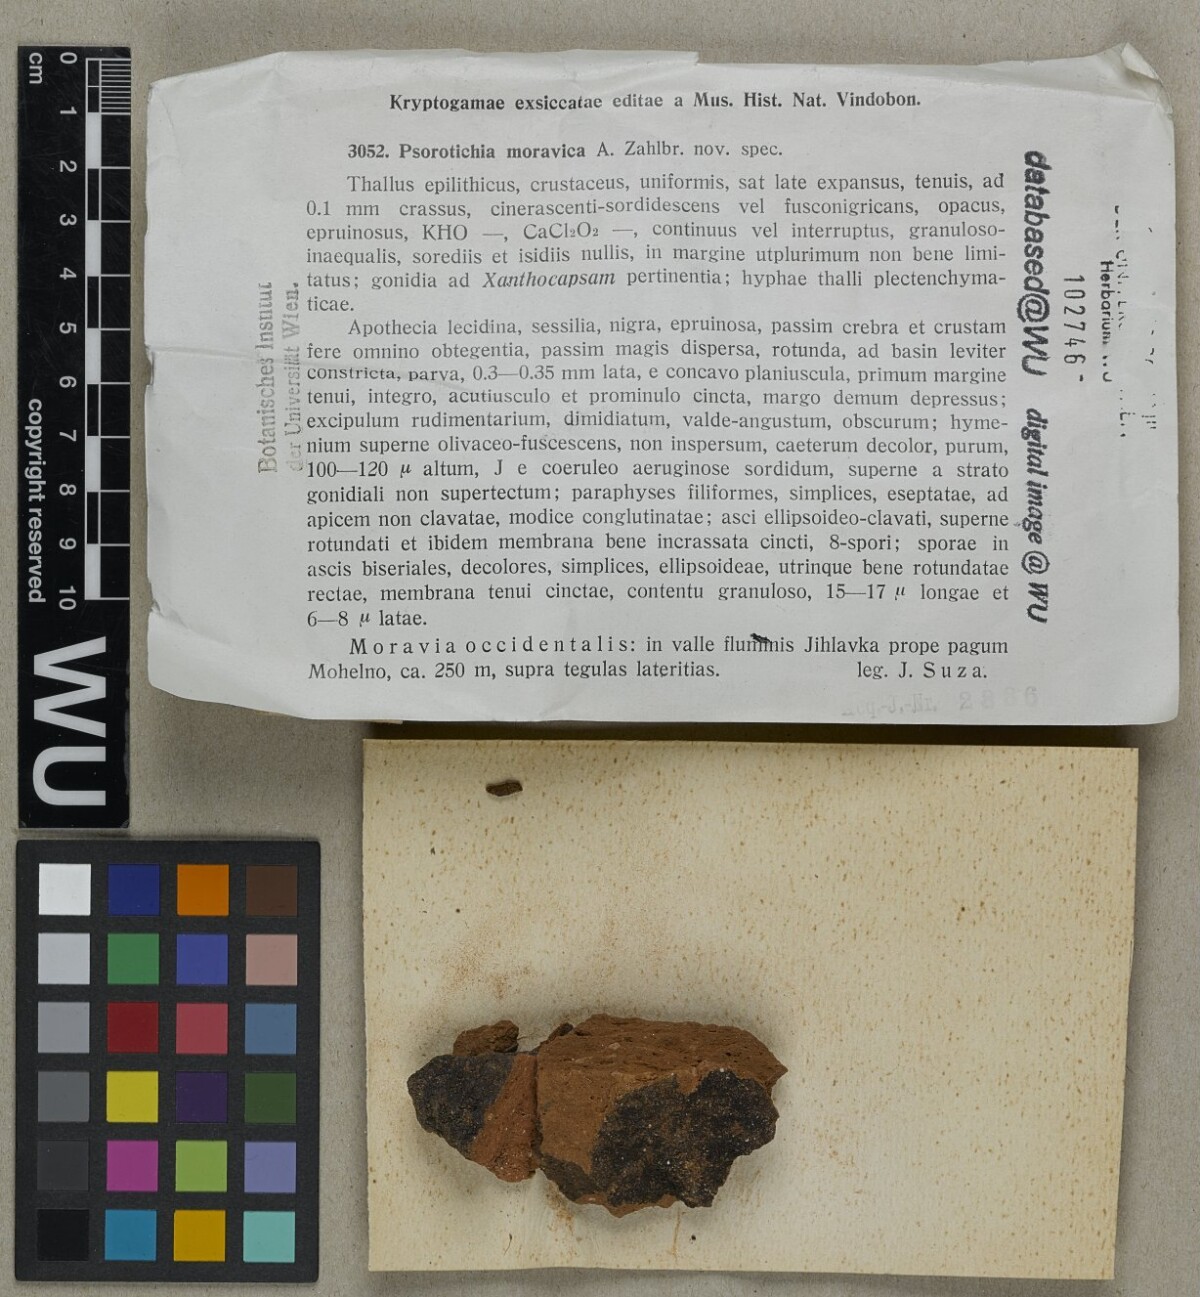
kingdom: Fungi
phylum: Ascomycota
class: Lichinomycetes
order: Lichinales
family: Lichinaceae
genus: Psorotichia
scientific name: Psorotichia moravica
